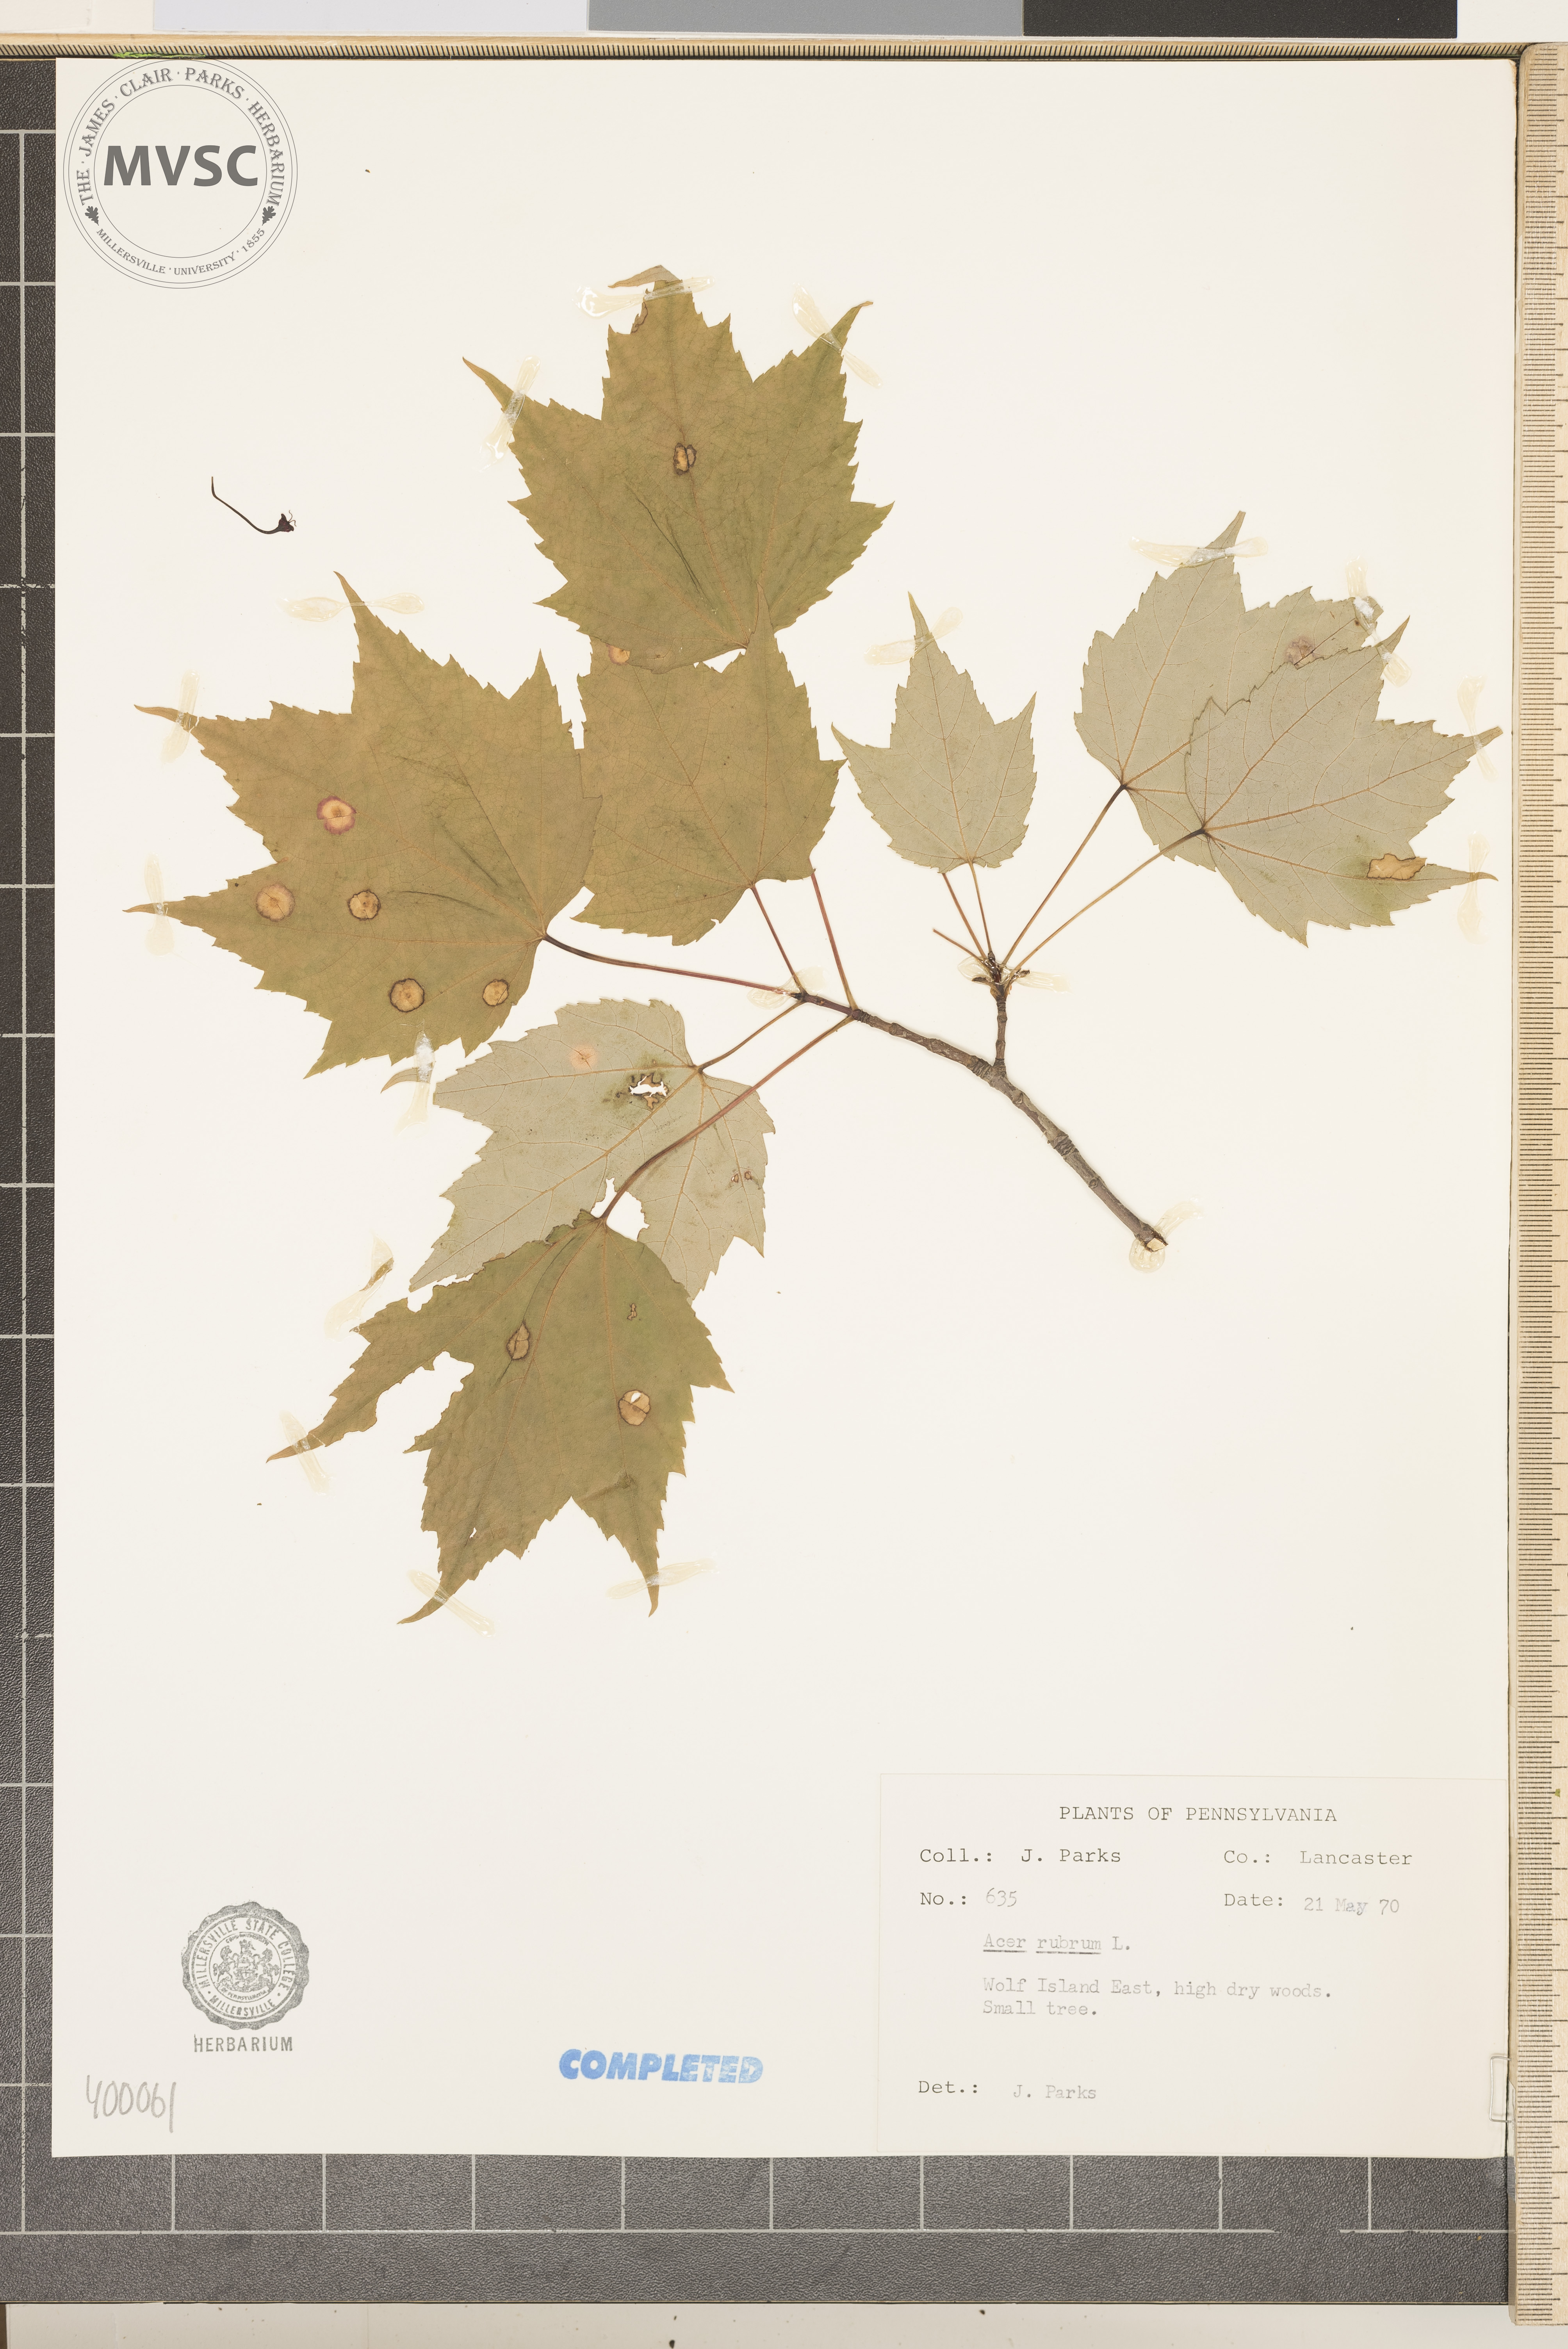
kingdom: Plantae
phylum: Tracheophyta
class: Magnoliopsida
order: Sapindales
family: Sapindaceae
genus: Acer
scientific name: Acer rubrum
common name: red maple
